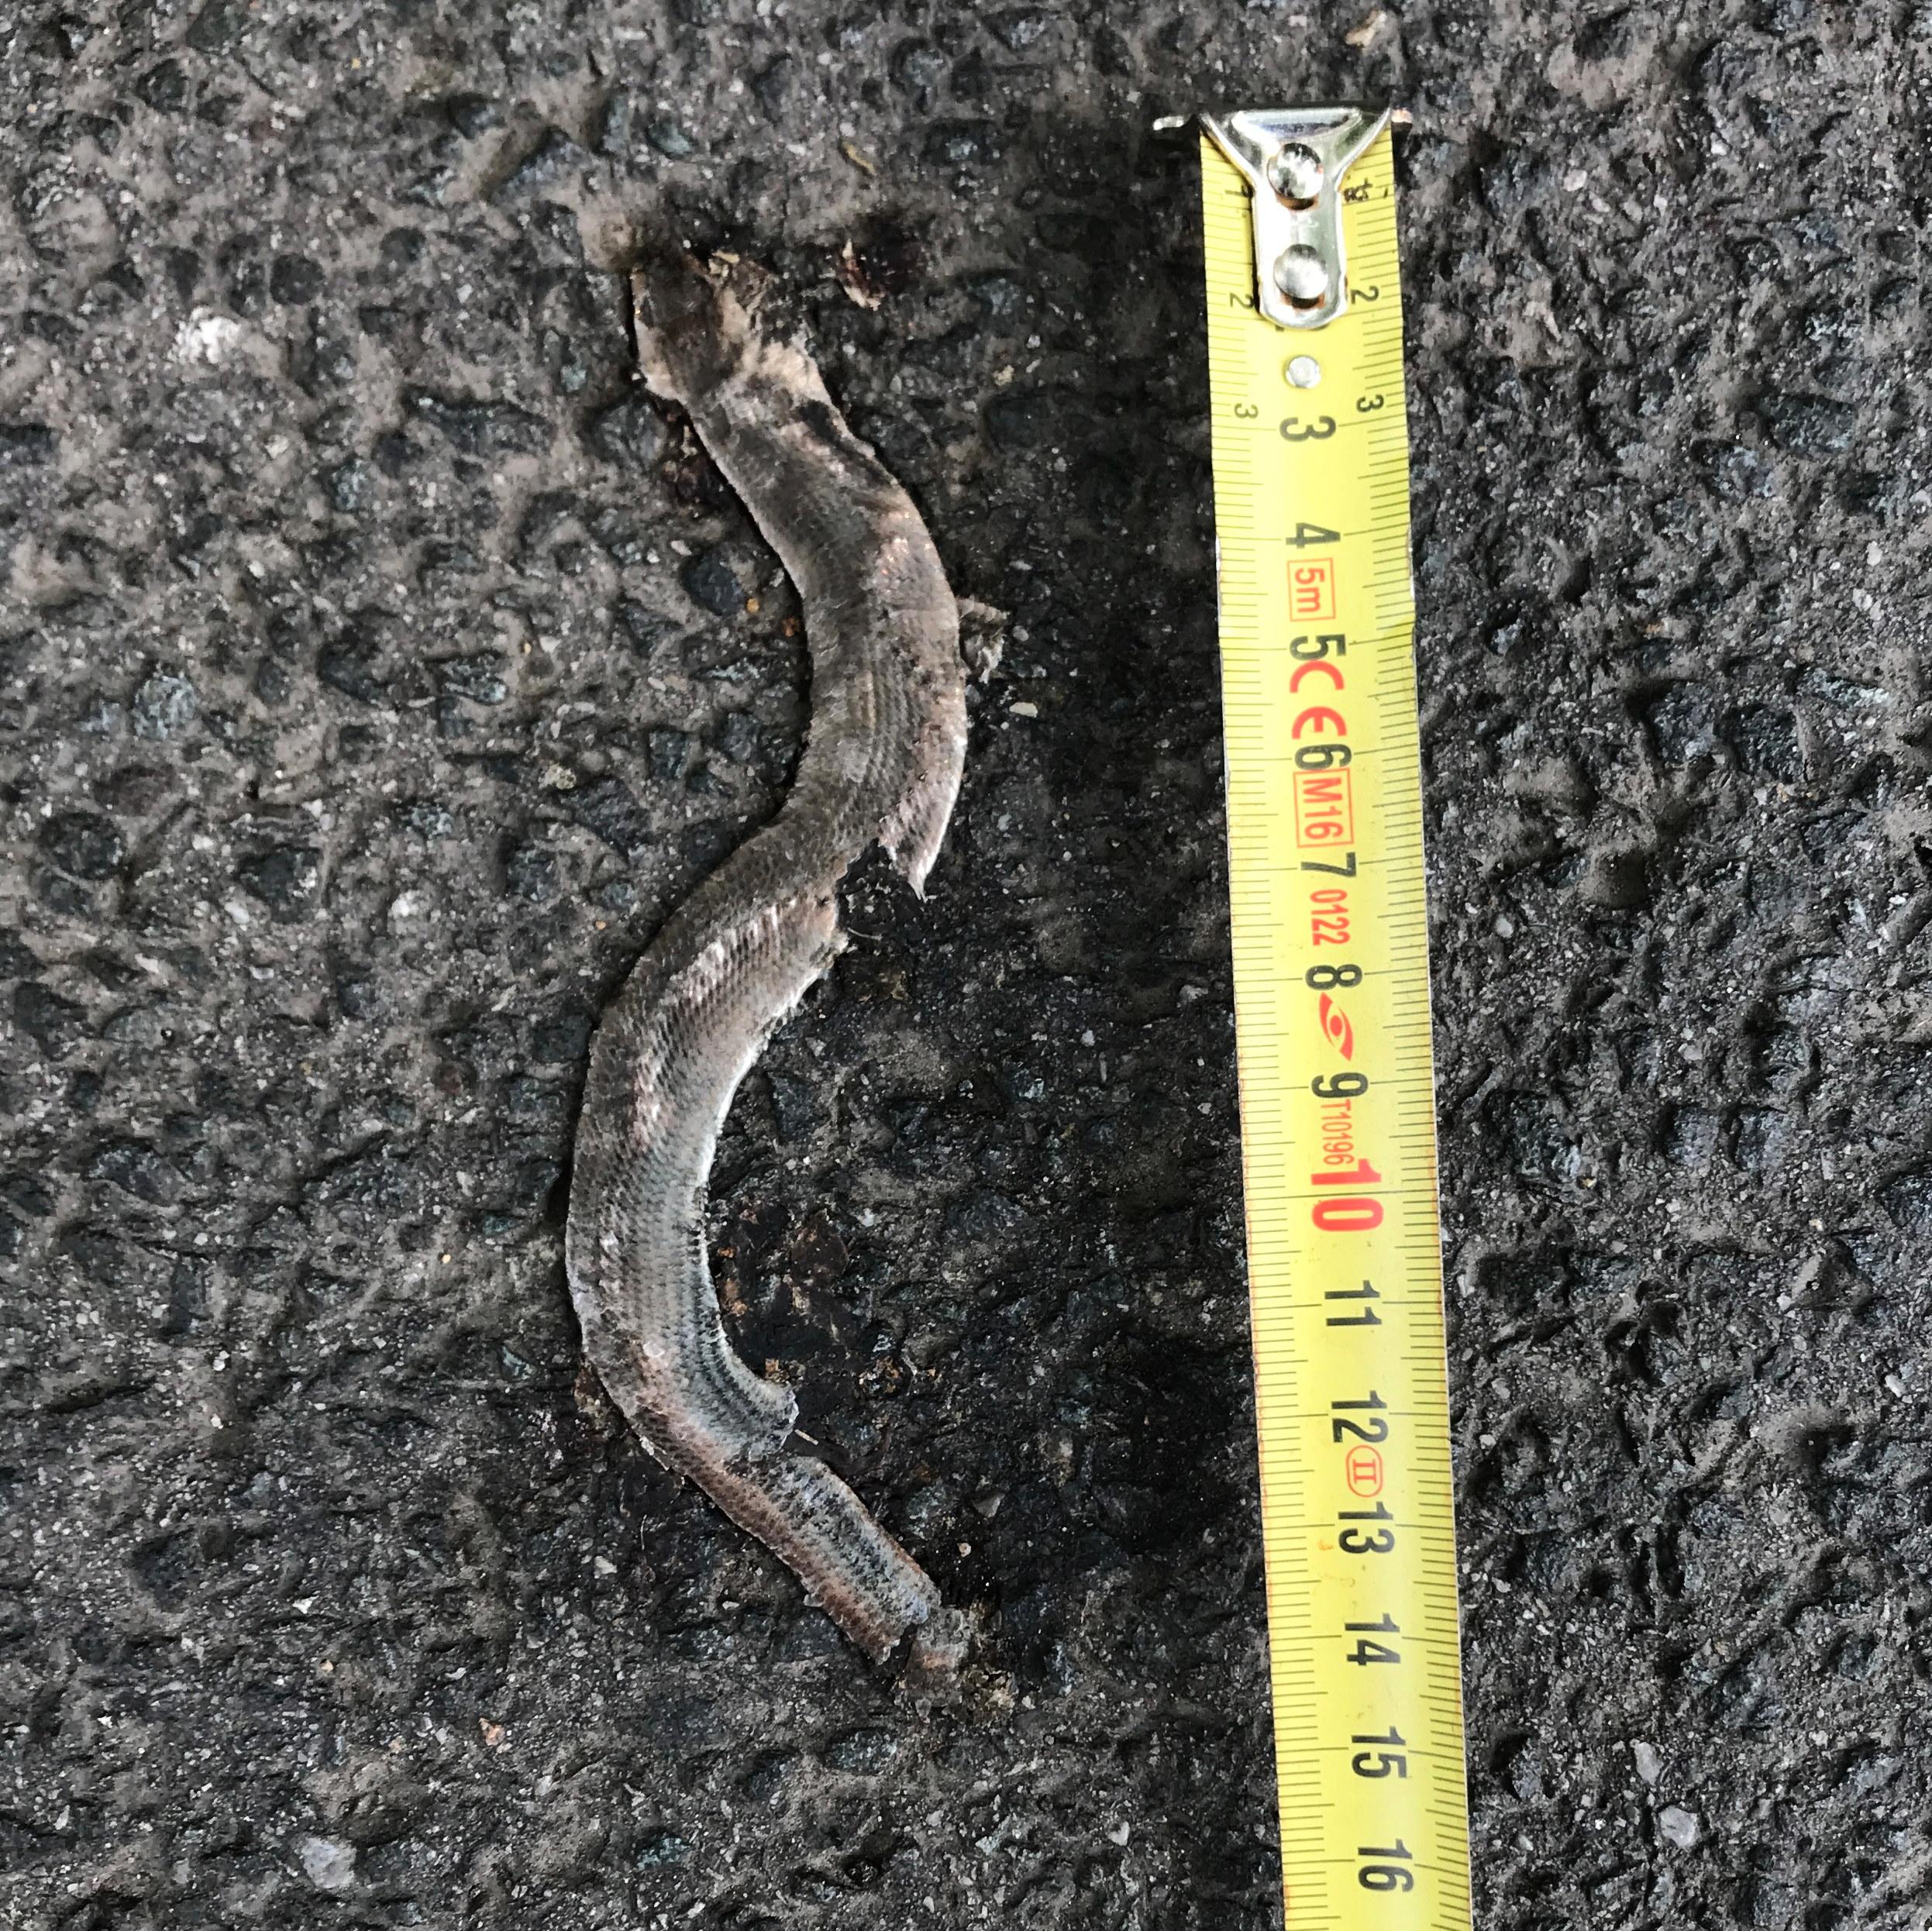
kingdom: Animalia
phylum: Chordata
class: Squamata
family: Anguidae
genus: Anguis
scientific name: Anguis fragilis
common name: Slow worm
